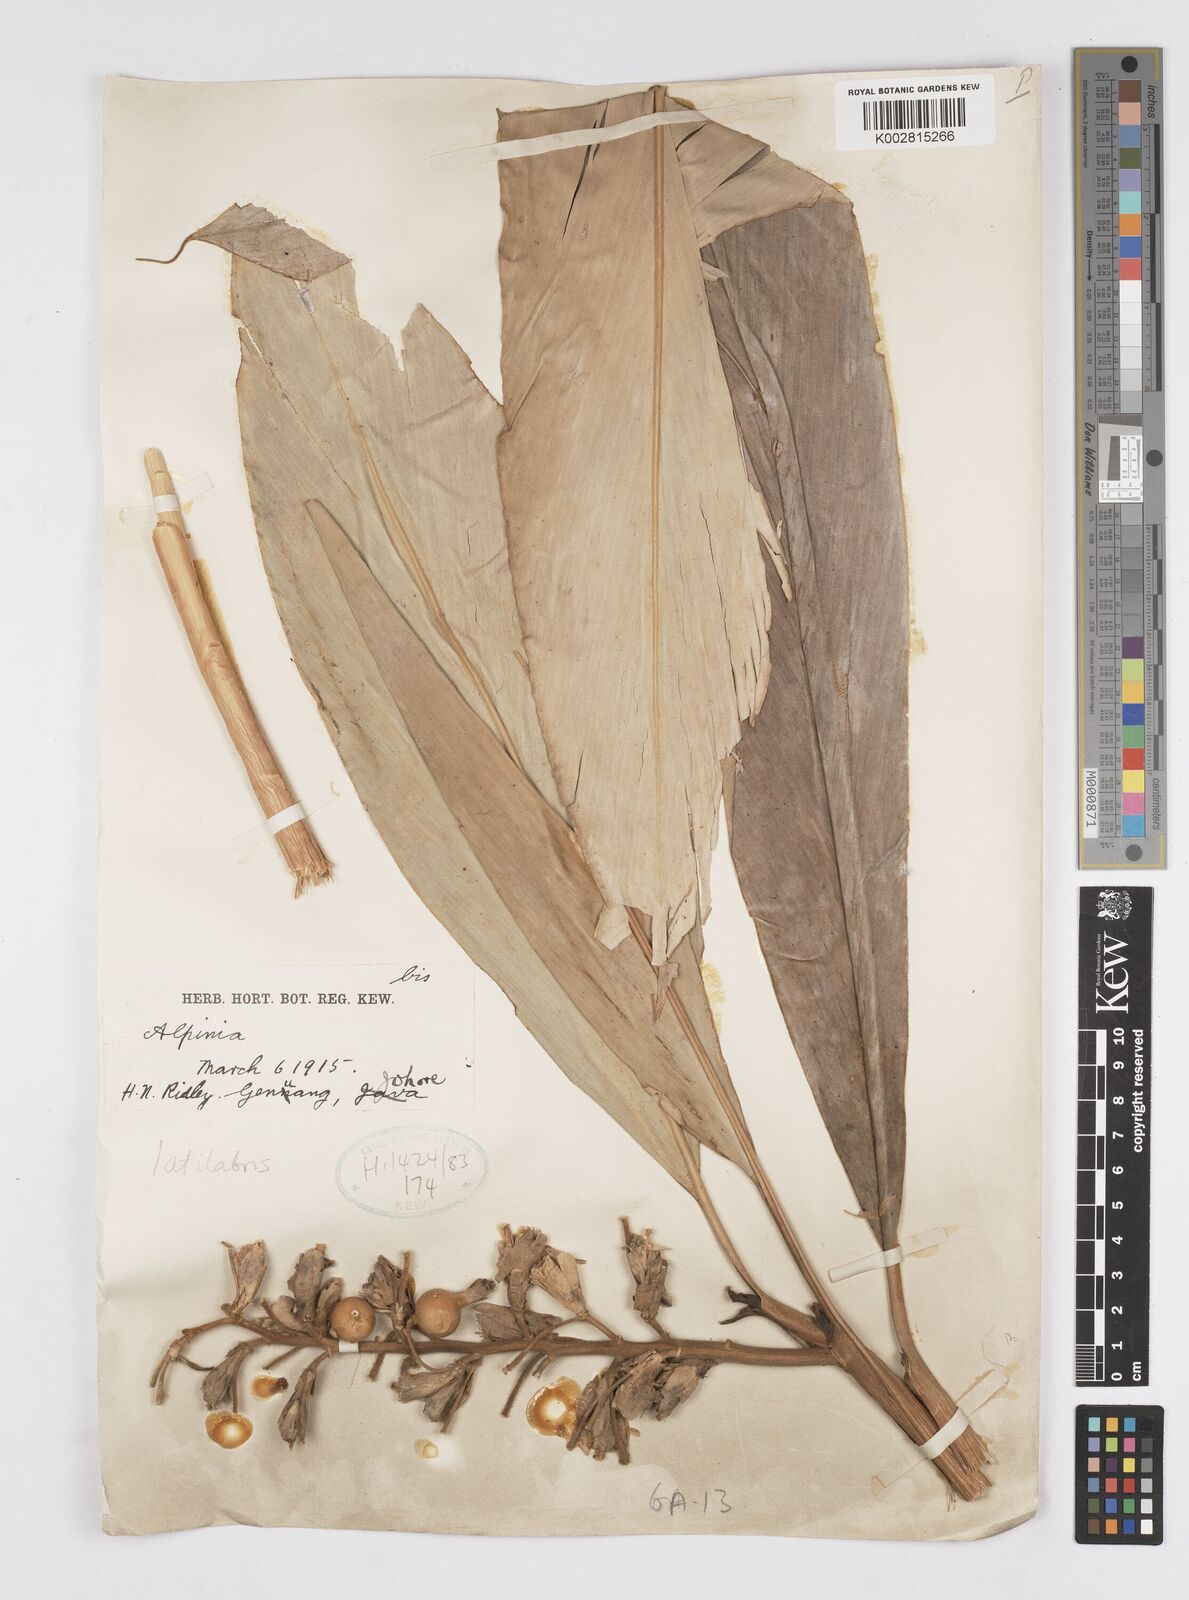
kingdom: Plantae
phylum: Tracheophyta
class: Liliopsida
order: Zingiberales
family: Zingiberaceae
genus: Alpinia
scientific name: Alpinia latilabris
